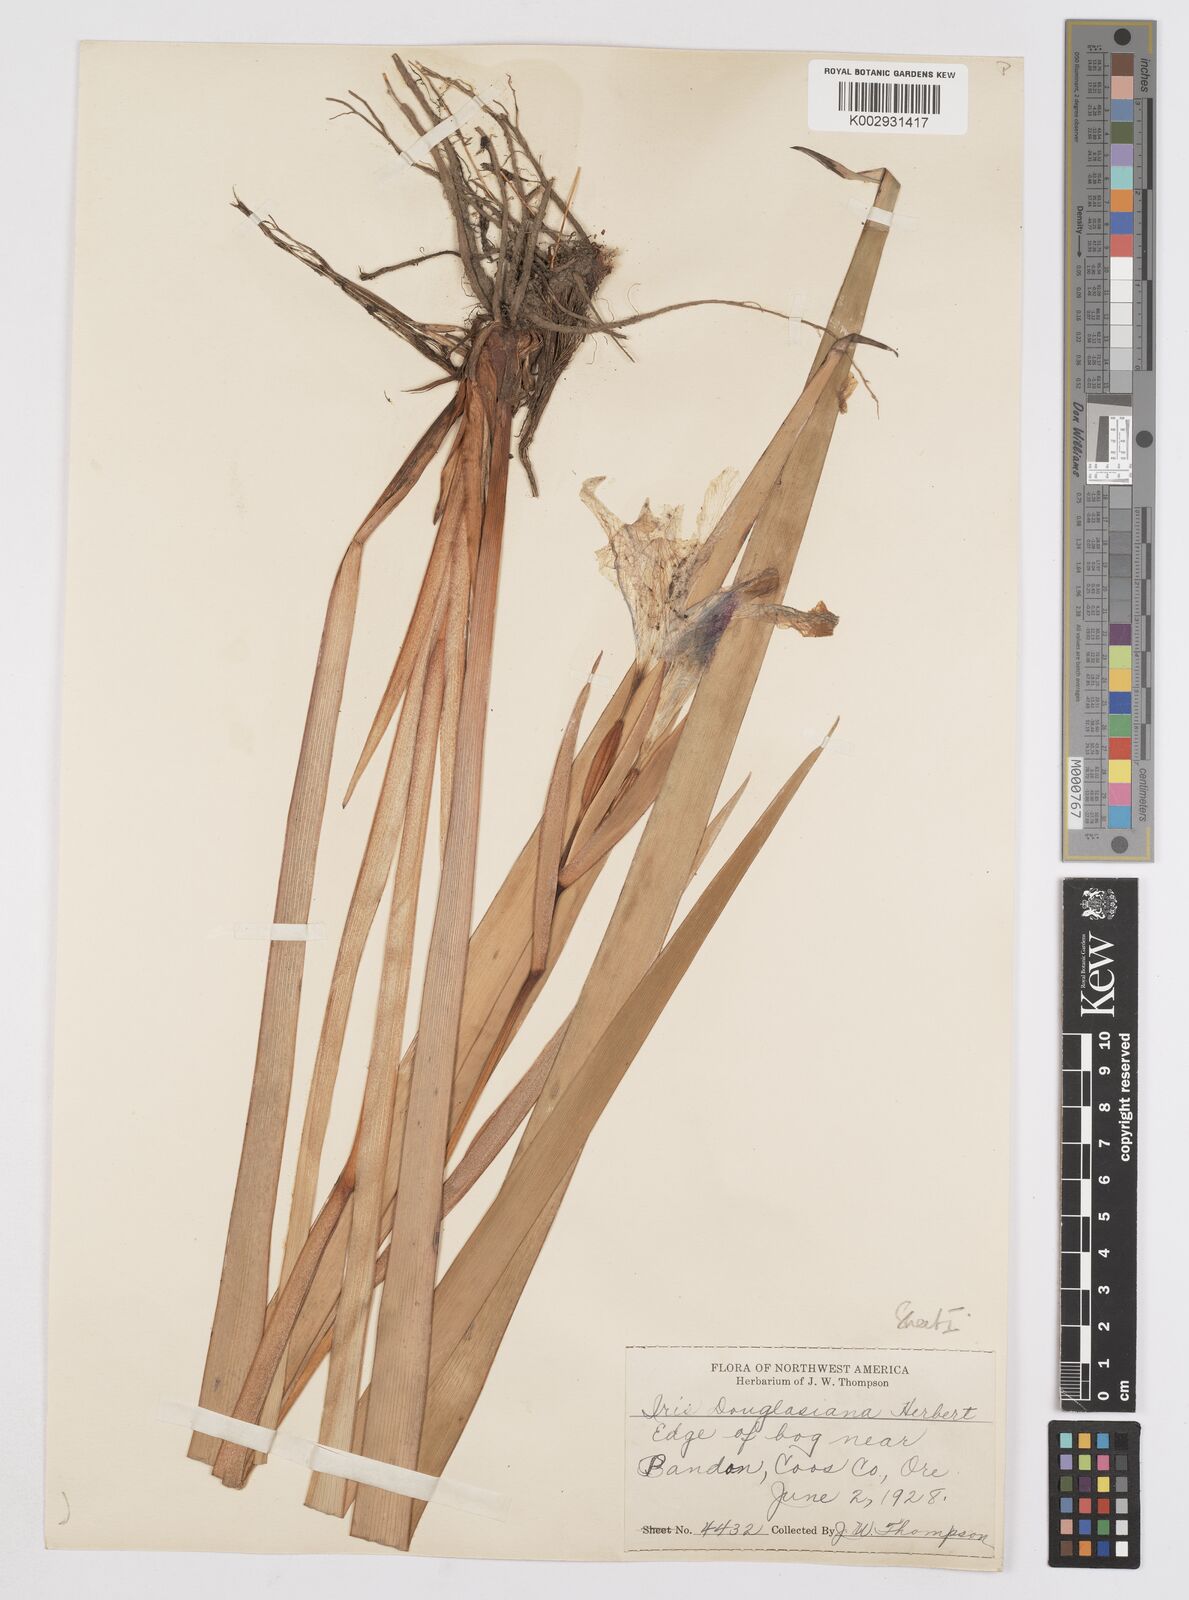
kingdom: Plantae
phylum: Tracheophyta
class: Liliopsida
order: Asparagales
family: Iridaceae
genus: Iris
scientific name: Iris douglasiana
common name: Marin iris
